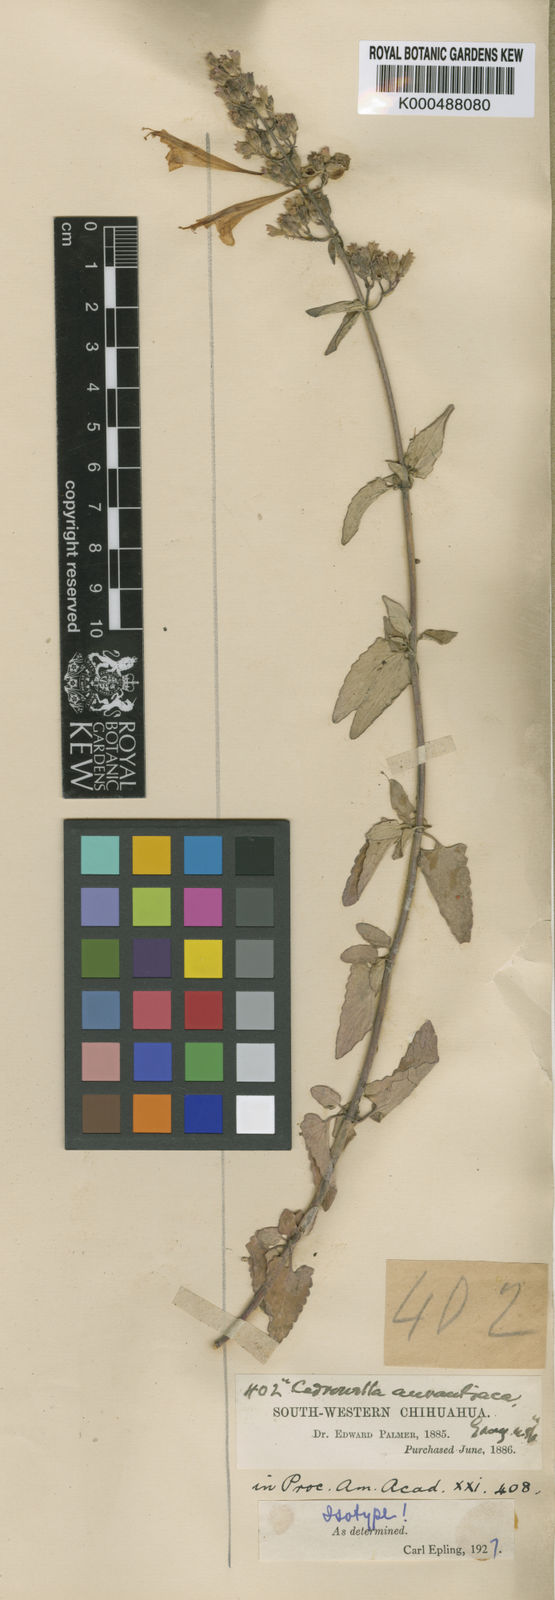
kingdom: Plantae
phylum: Tracheophyta
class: Magnoliopsida
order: Lamiales
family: Lamiaceae
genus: Agastache
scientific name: Agastache aurantiaca
